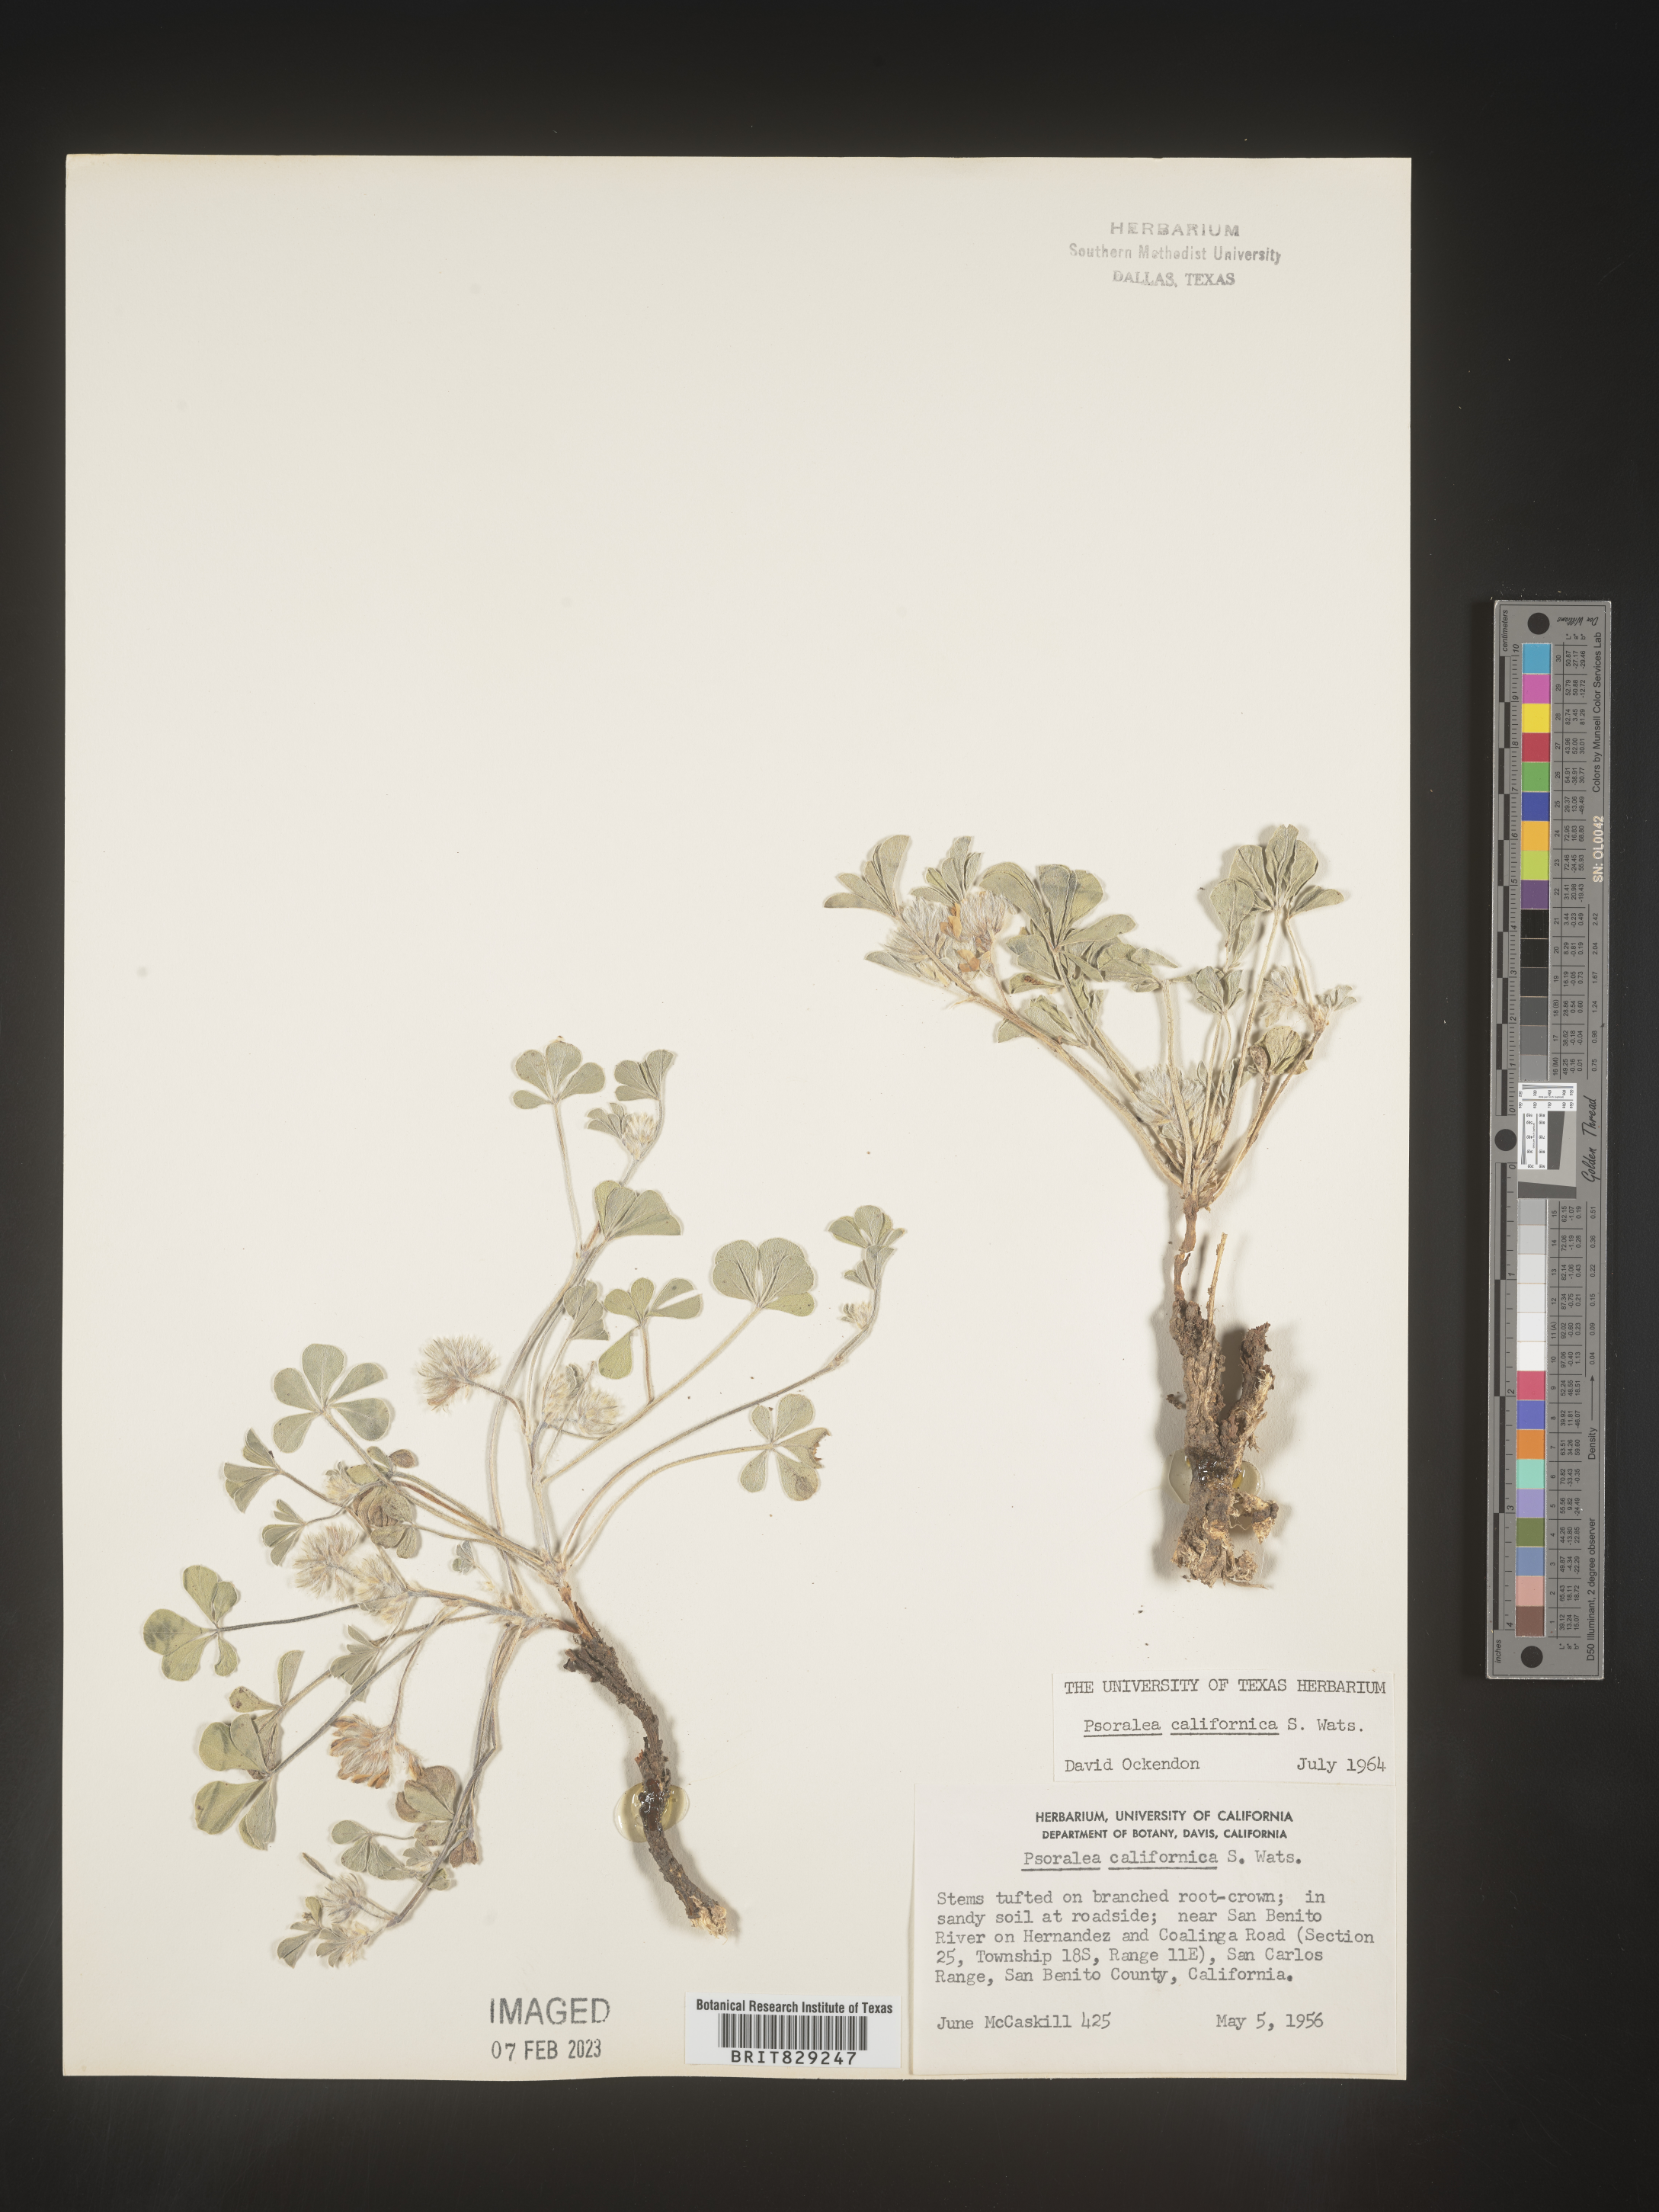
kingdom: Plantae
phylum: Tracheophyta
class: Magnoliopsida
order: Fabales
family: Fabaceae
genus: Pediomelum
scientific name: Pediomelum californicum
